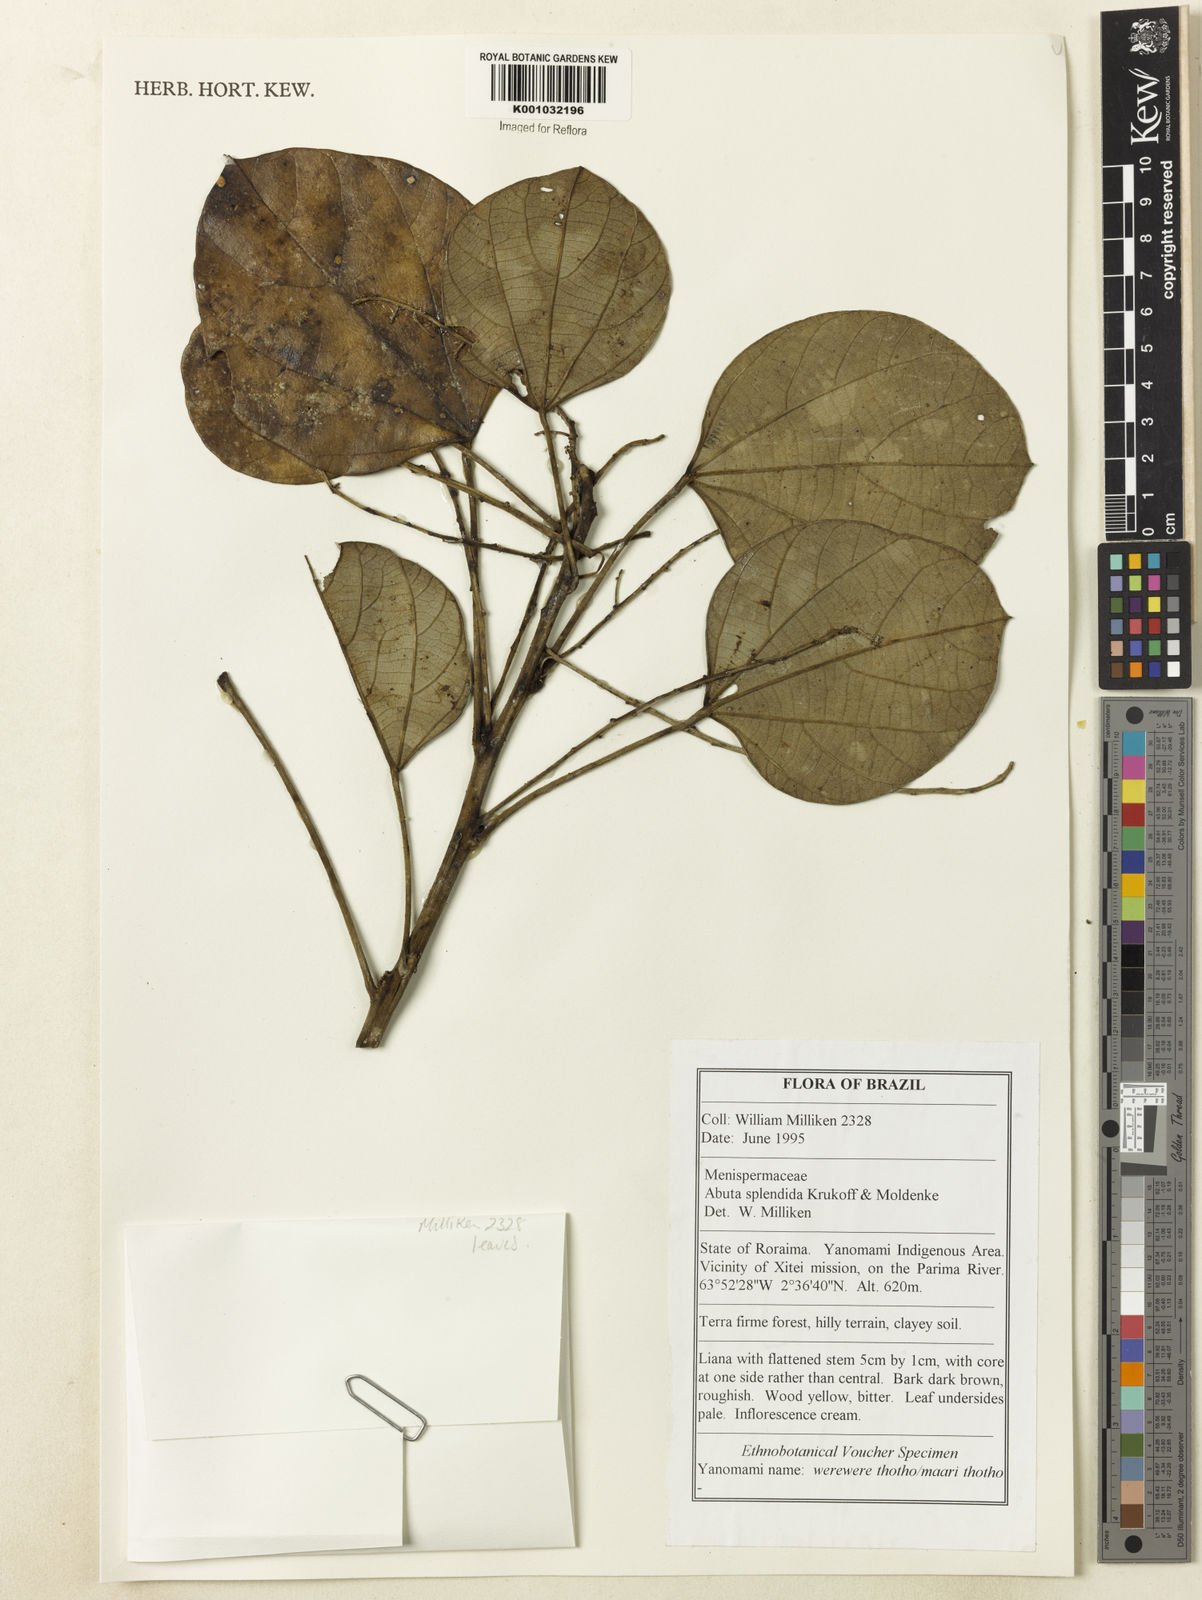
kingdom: Plantae
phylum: Tracheophyta
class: Magnoliopsida
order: Ranunculales
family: Menispermaceae
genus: Abuta
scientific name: Abuta
